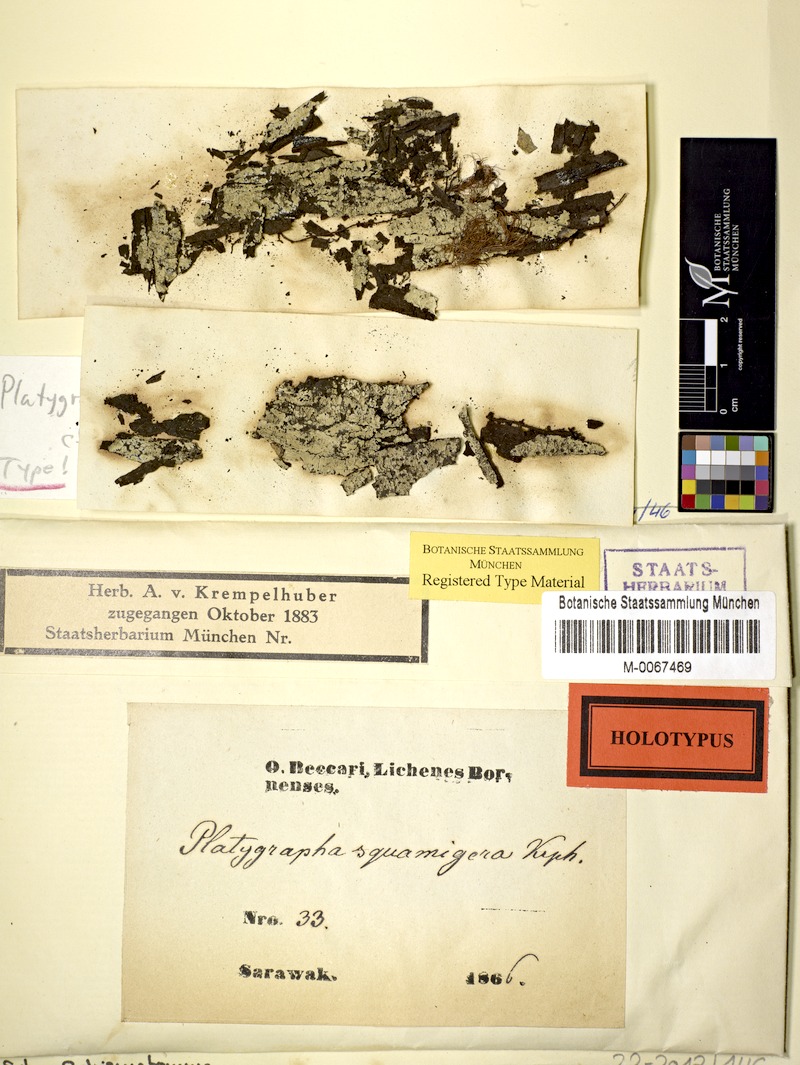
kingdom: Fungi
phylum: Ascomycota
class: Arthoniomycetes
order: Arthoniales
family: Roccellaceae
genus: Schismatomma
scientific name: Schismatomma
